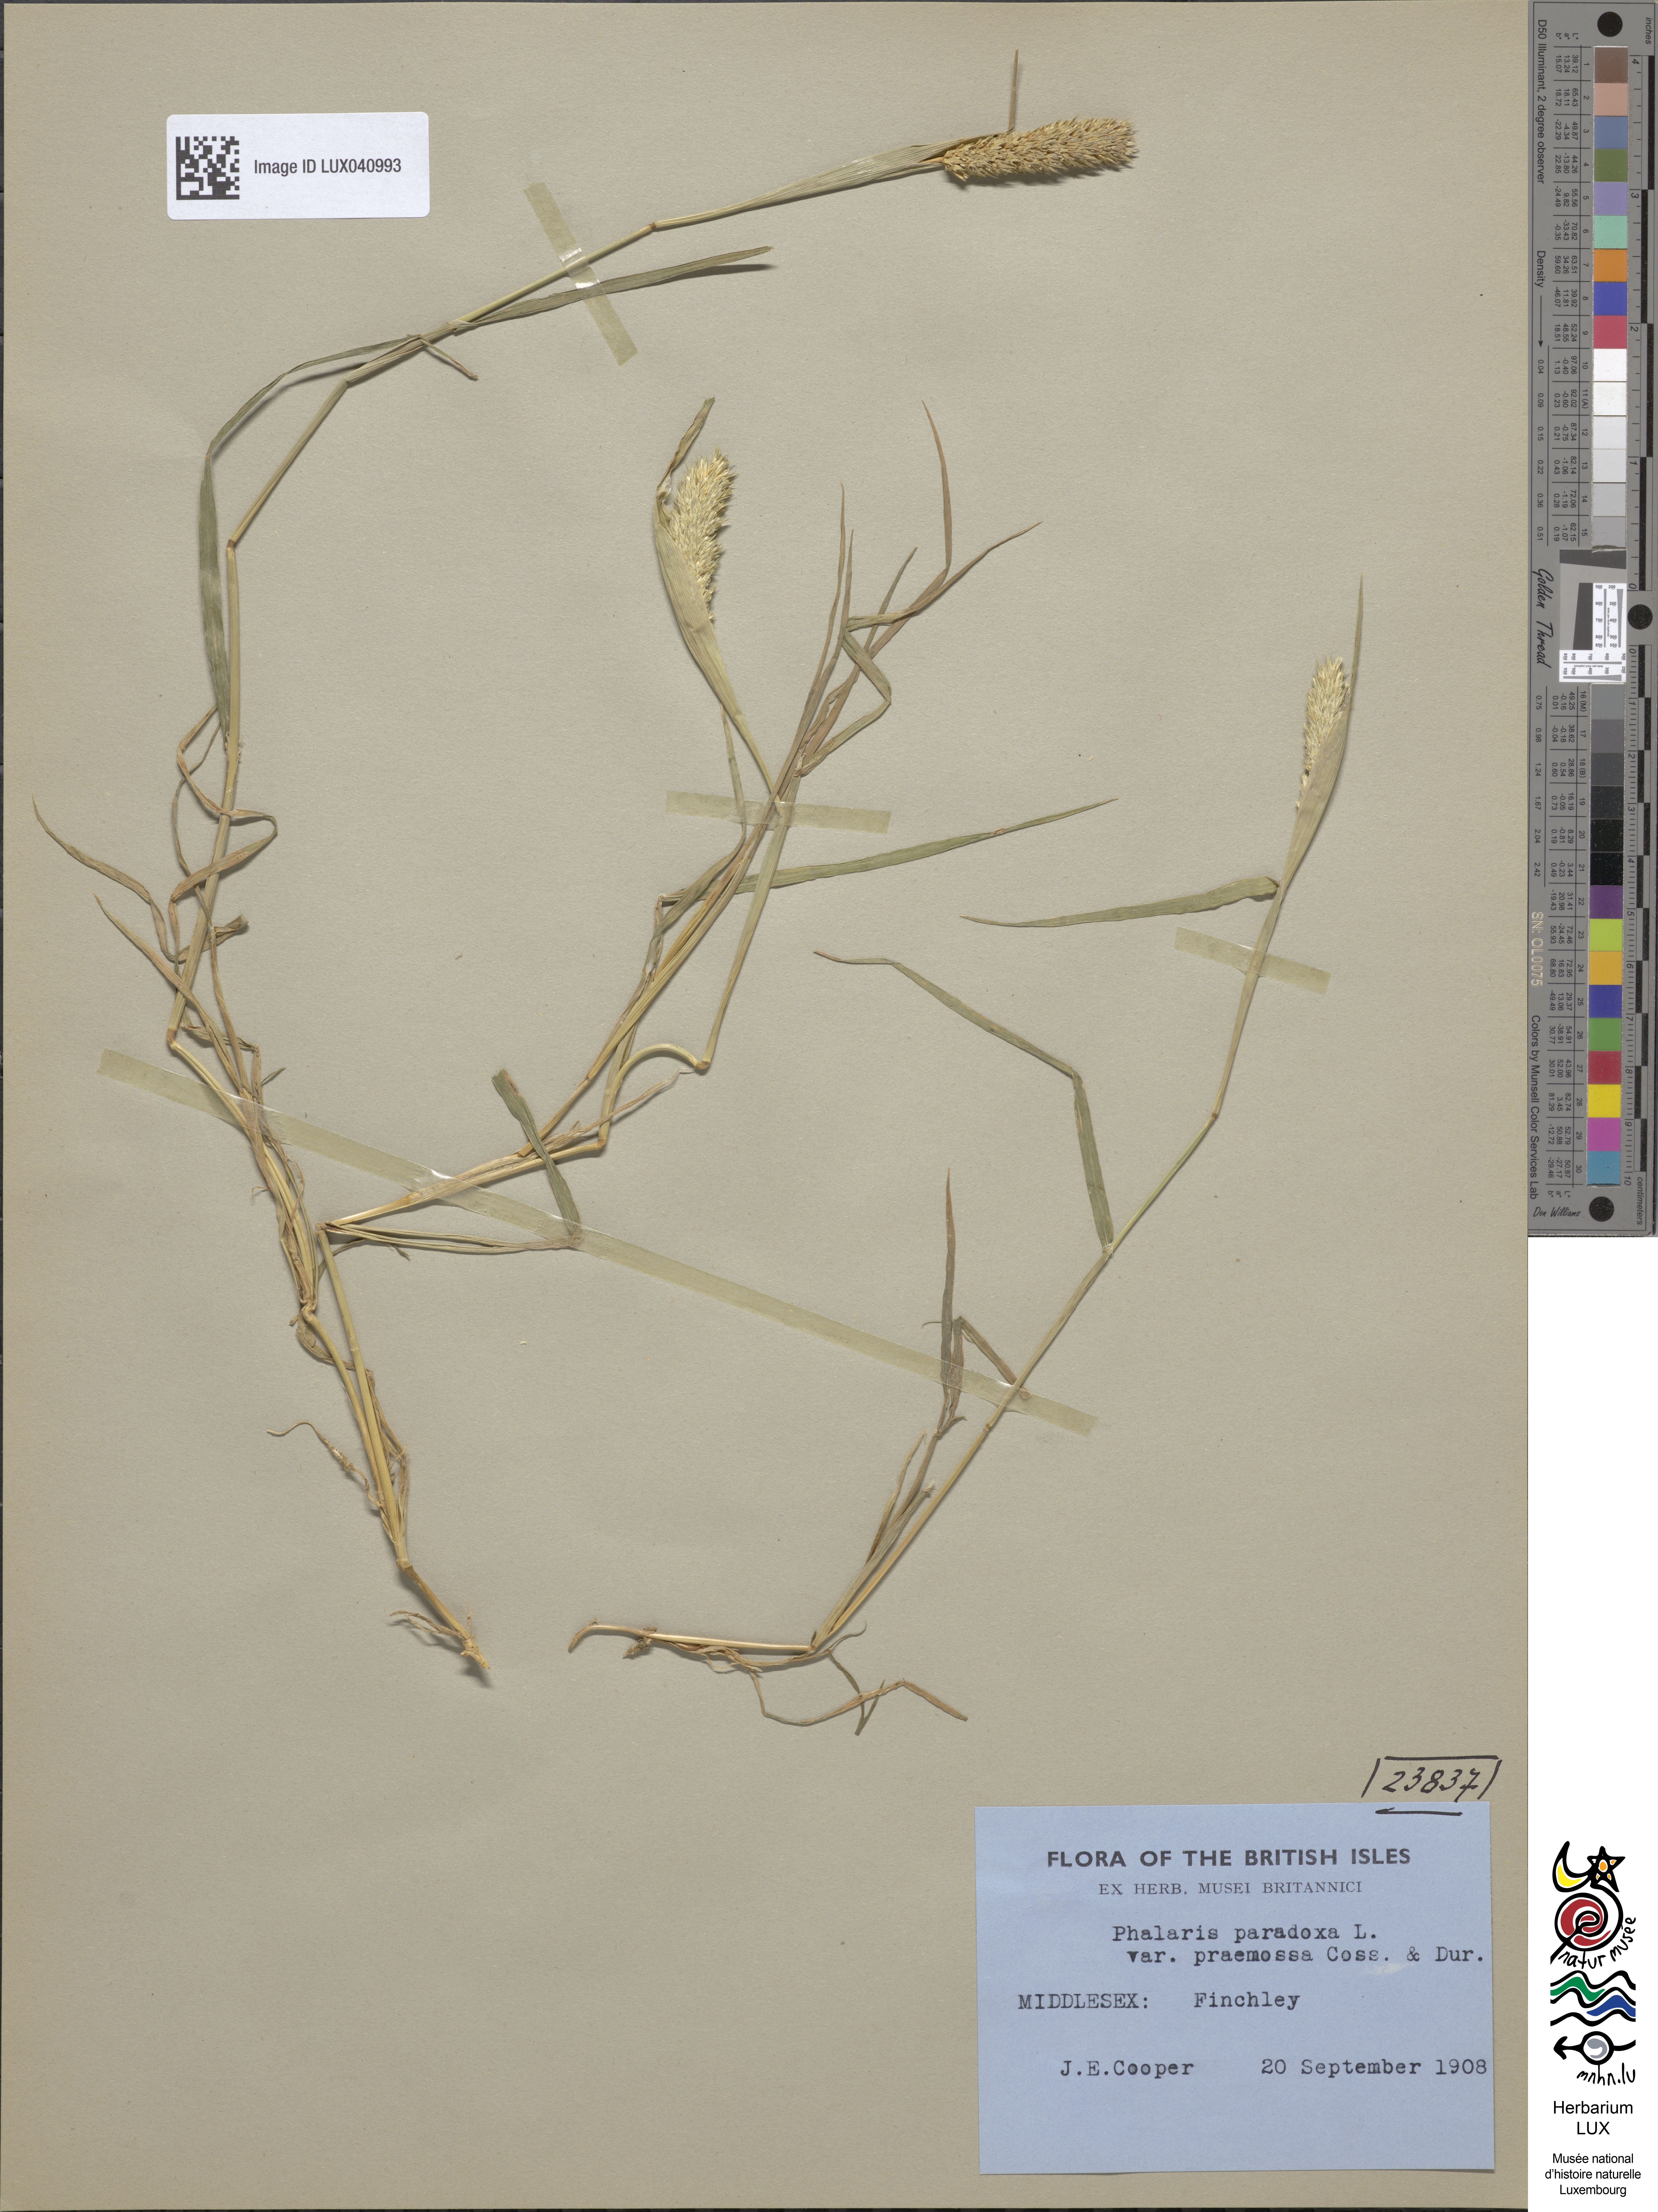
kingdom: Plantae
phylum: Tracheophyta
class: Liliopsida
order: Poales
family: Poaceae
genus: Phalaris
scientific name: Phalaris paradoxa
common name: Awned canary-grass
